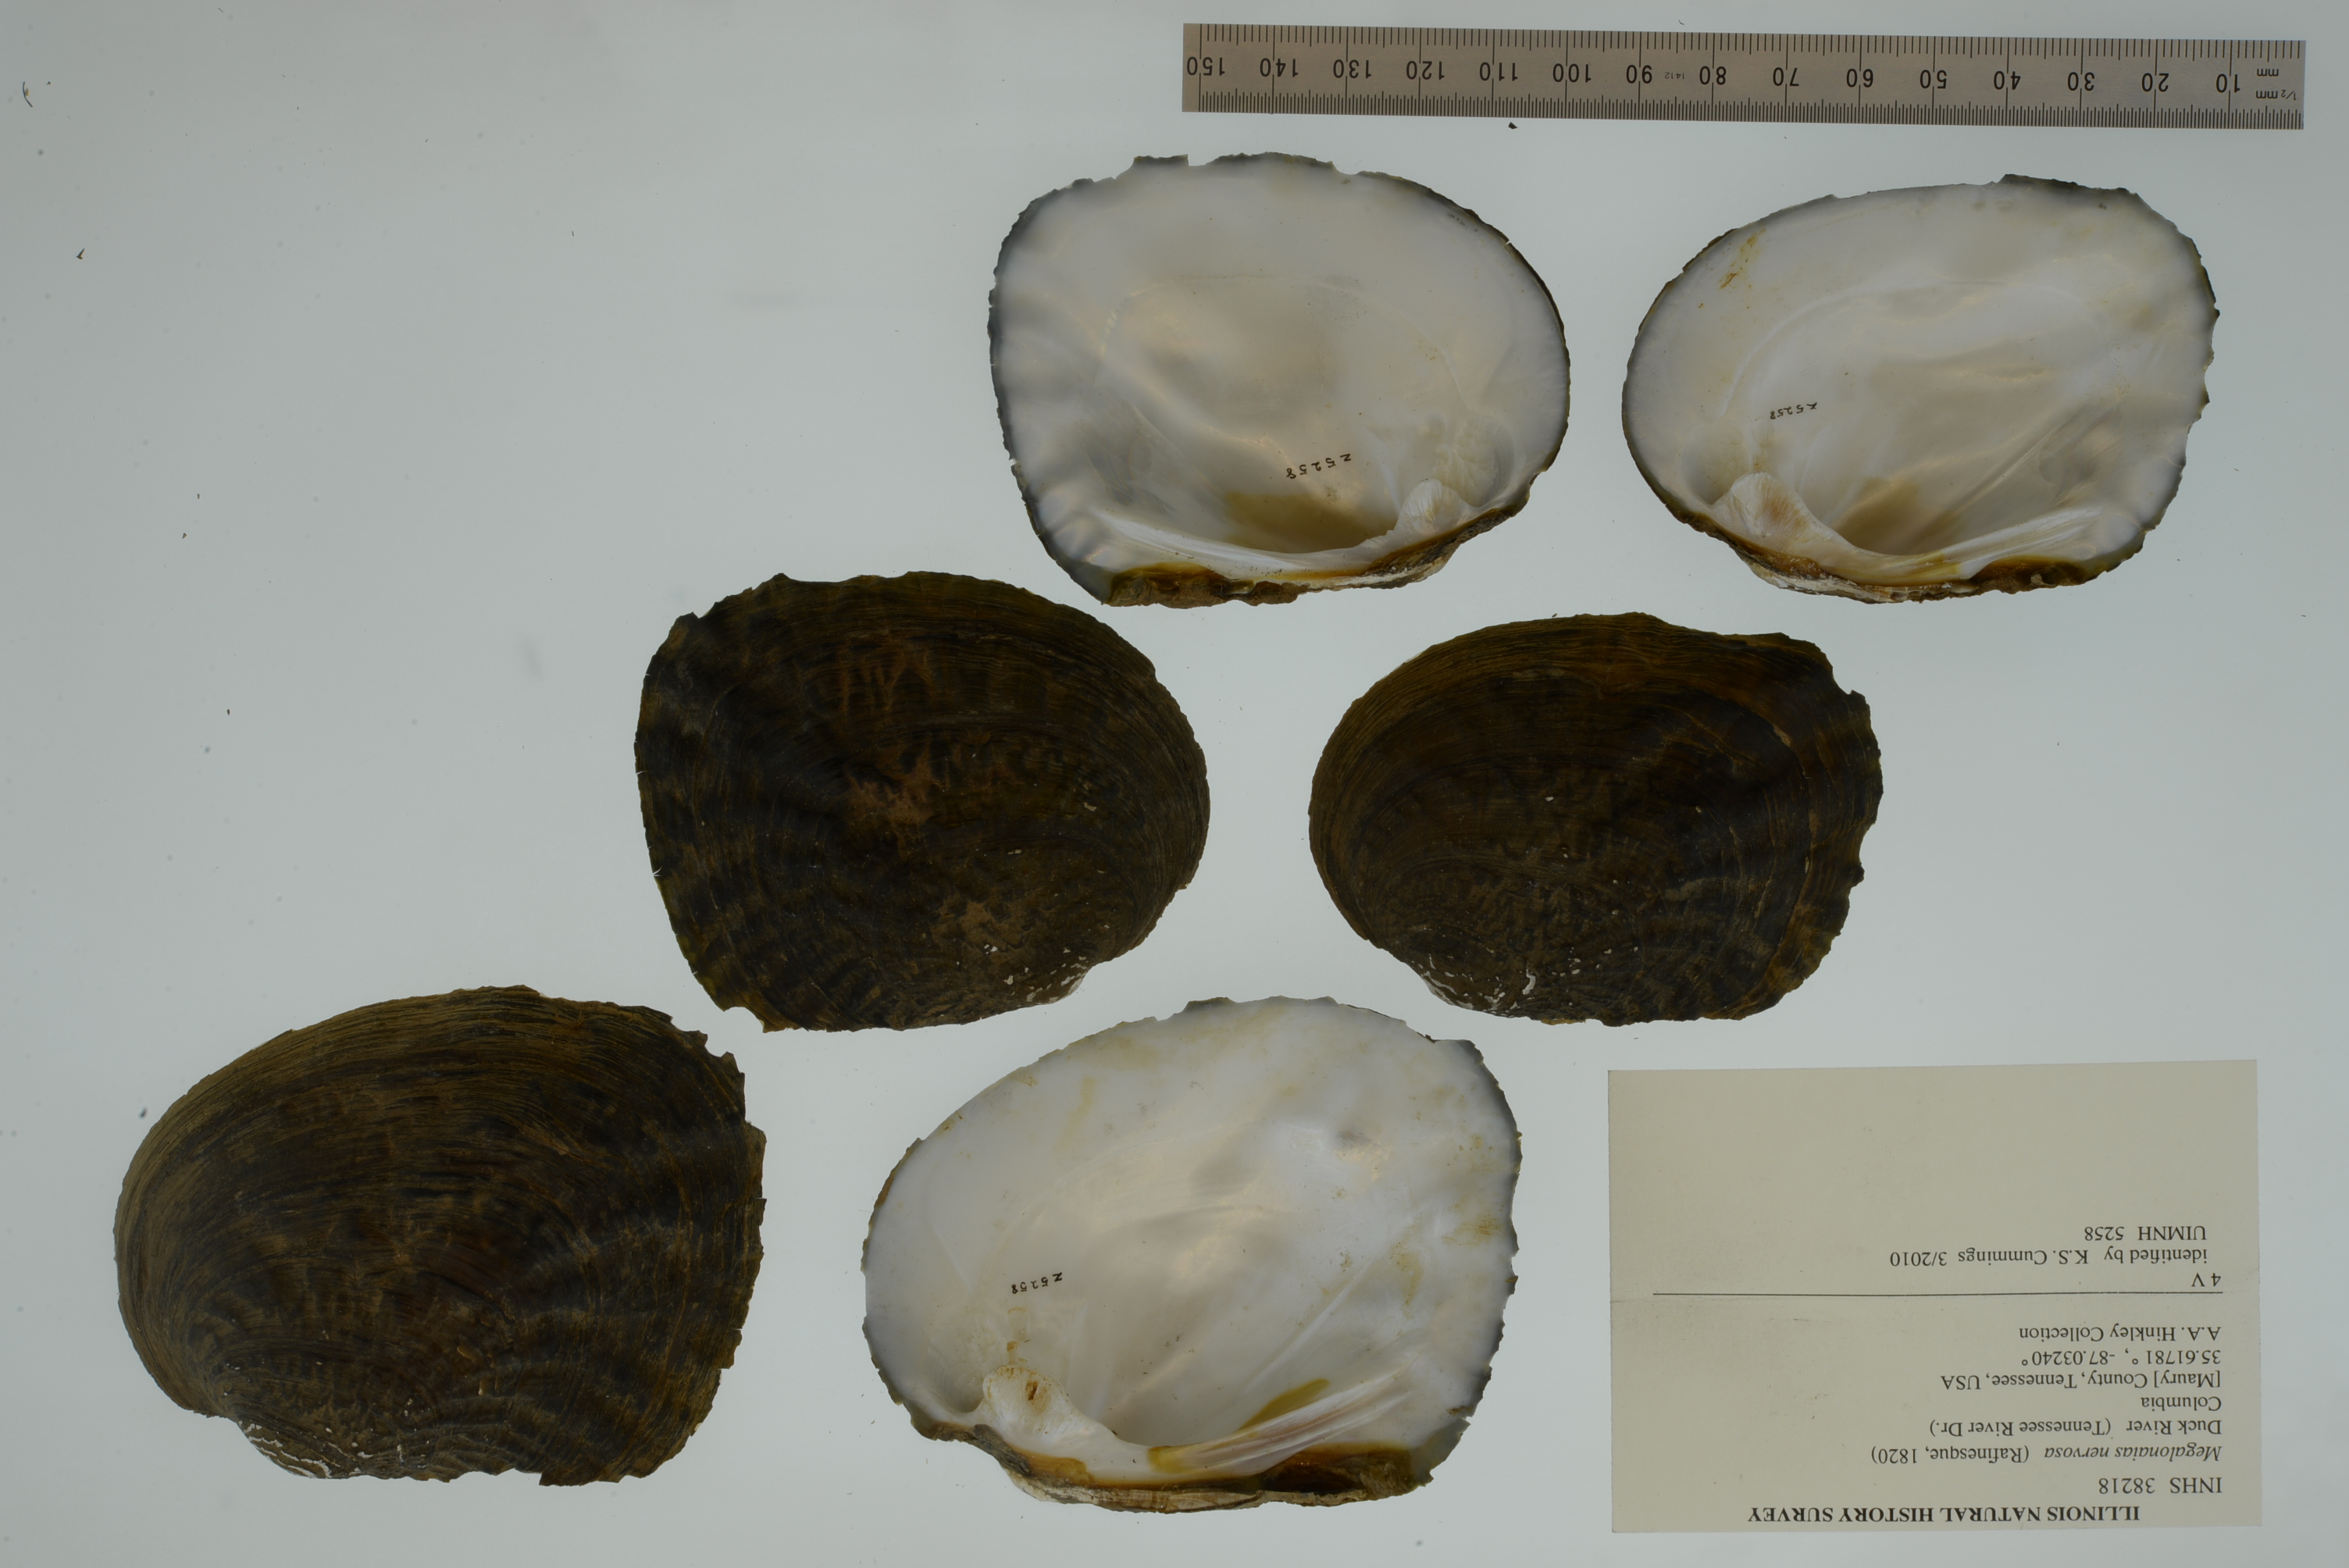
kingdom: Animalia
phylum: Mollusca
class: Bivalvia
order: Unionida
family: Unionidae
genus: Megalonaias
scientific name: Megalonaias nervosa
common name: Washboard
